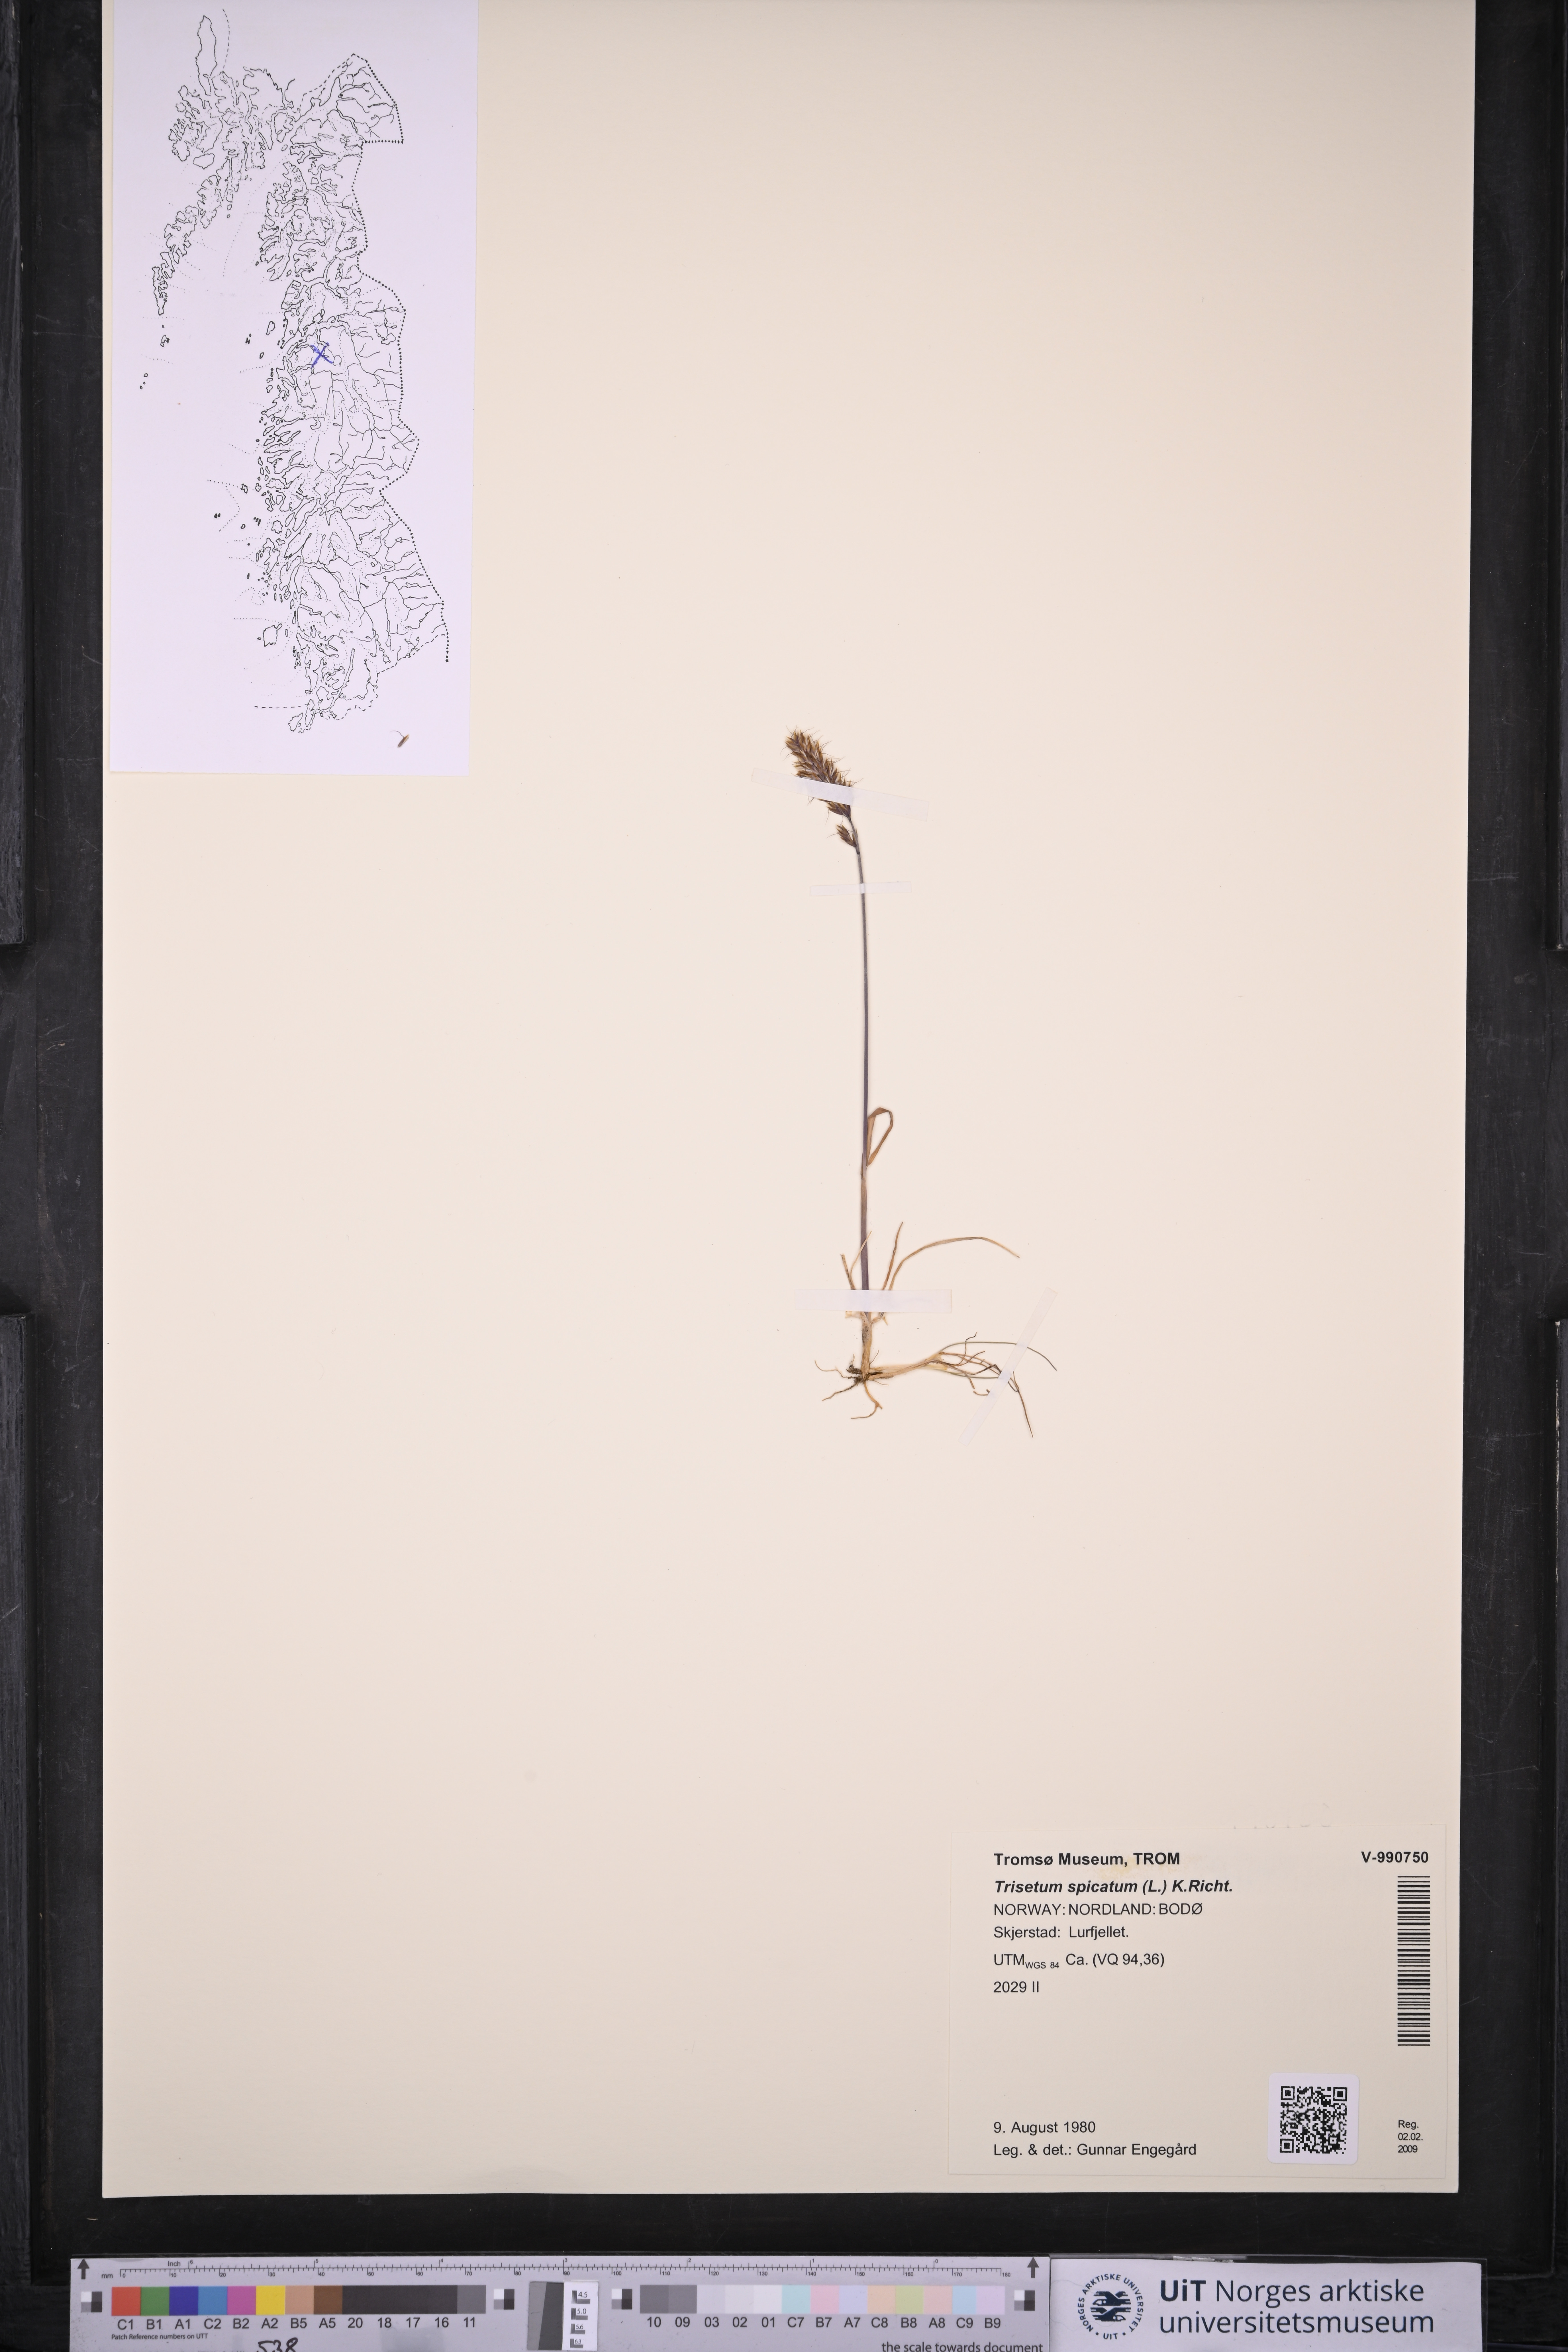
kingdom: Plantae
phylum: Tracheophyta
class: Liliopsida
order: Poales
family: Poaceae
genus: Koeleria
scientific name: Koeleria spicata
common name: Mountain trisetum
